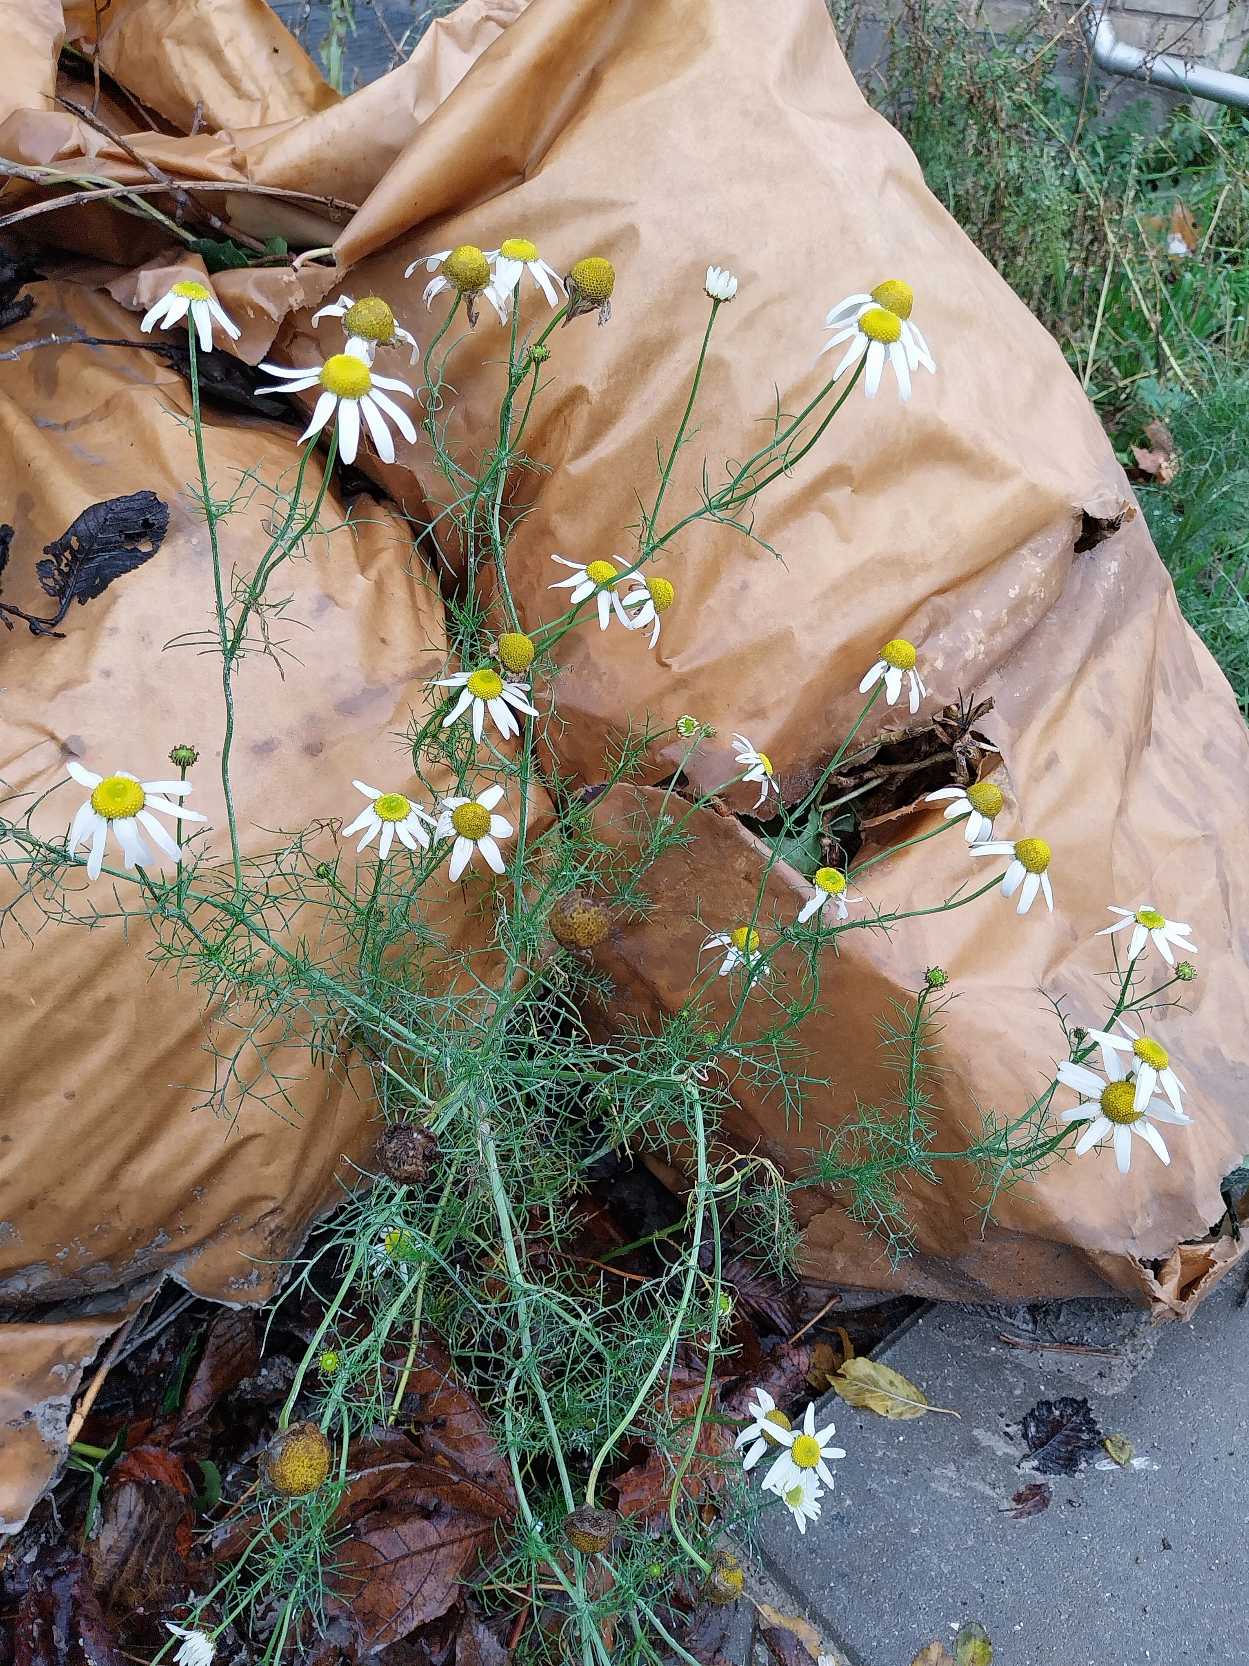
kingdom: Plantae
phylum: Tracheophyta
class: Magnoliopsida
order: Asterales
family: Asteraceae
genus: Tripleurospermum
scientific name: Tripleurospermum inodorum
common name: Lugtløs kamille
